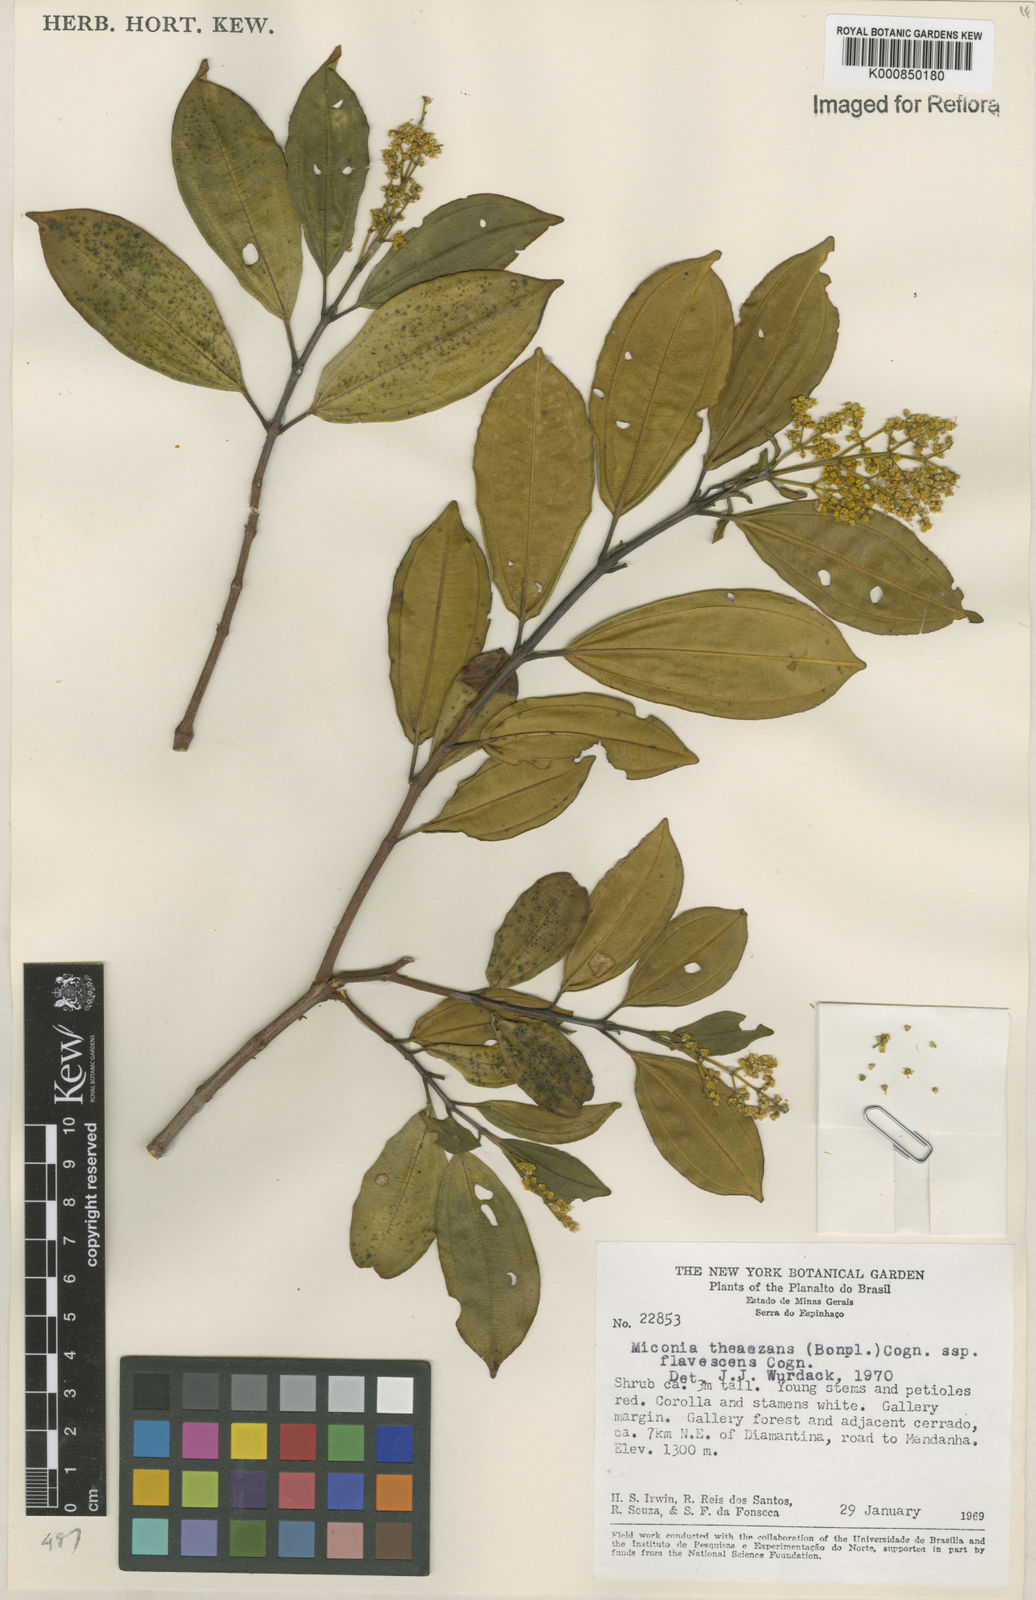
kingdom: Plantae
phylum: Tracheophyta
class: Magnoliopsida
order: Myrtales
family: Melastomataceae
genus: Miconia
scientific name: Miconia
